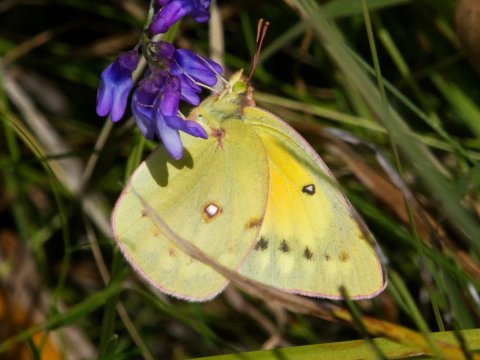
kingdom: Animalia
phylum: Arthropoda
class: Insecta
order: Lepidoptera
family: Pieridae
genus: Colias
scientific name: Colias eurytheme
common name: Orange Sulphur
